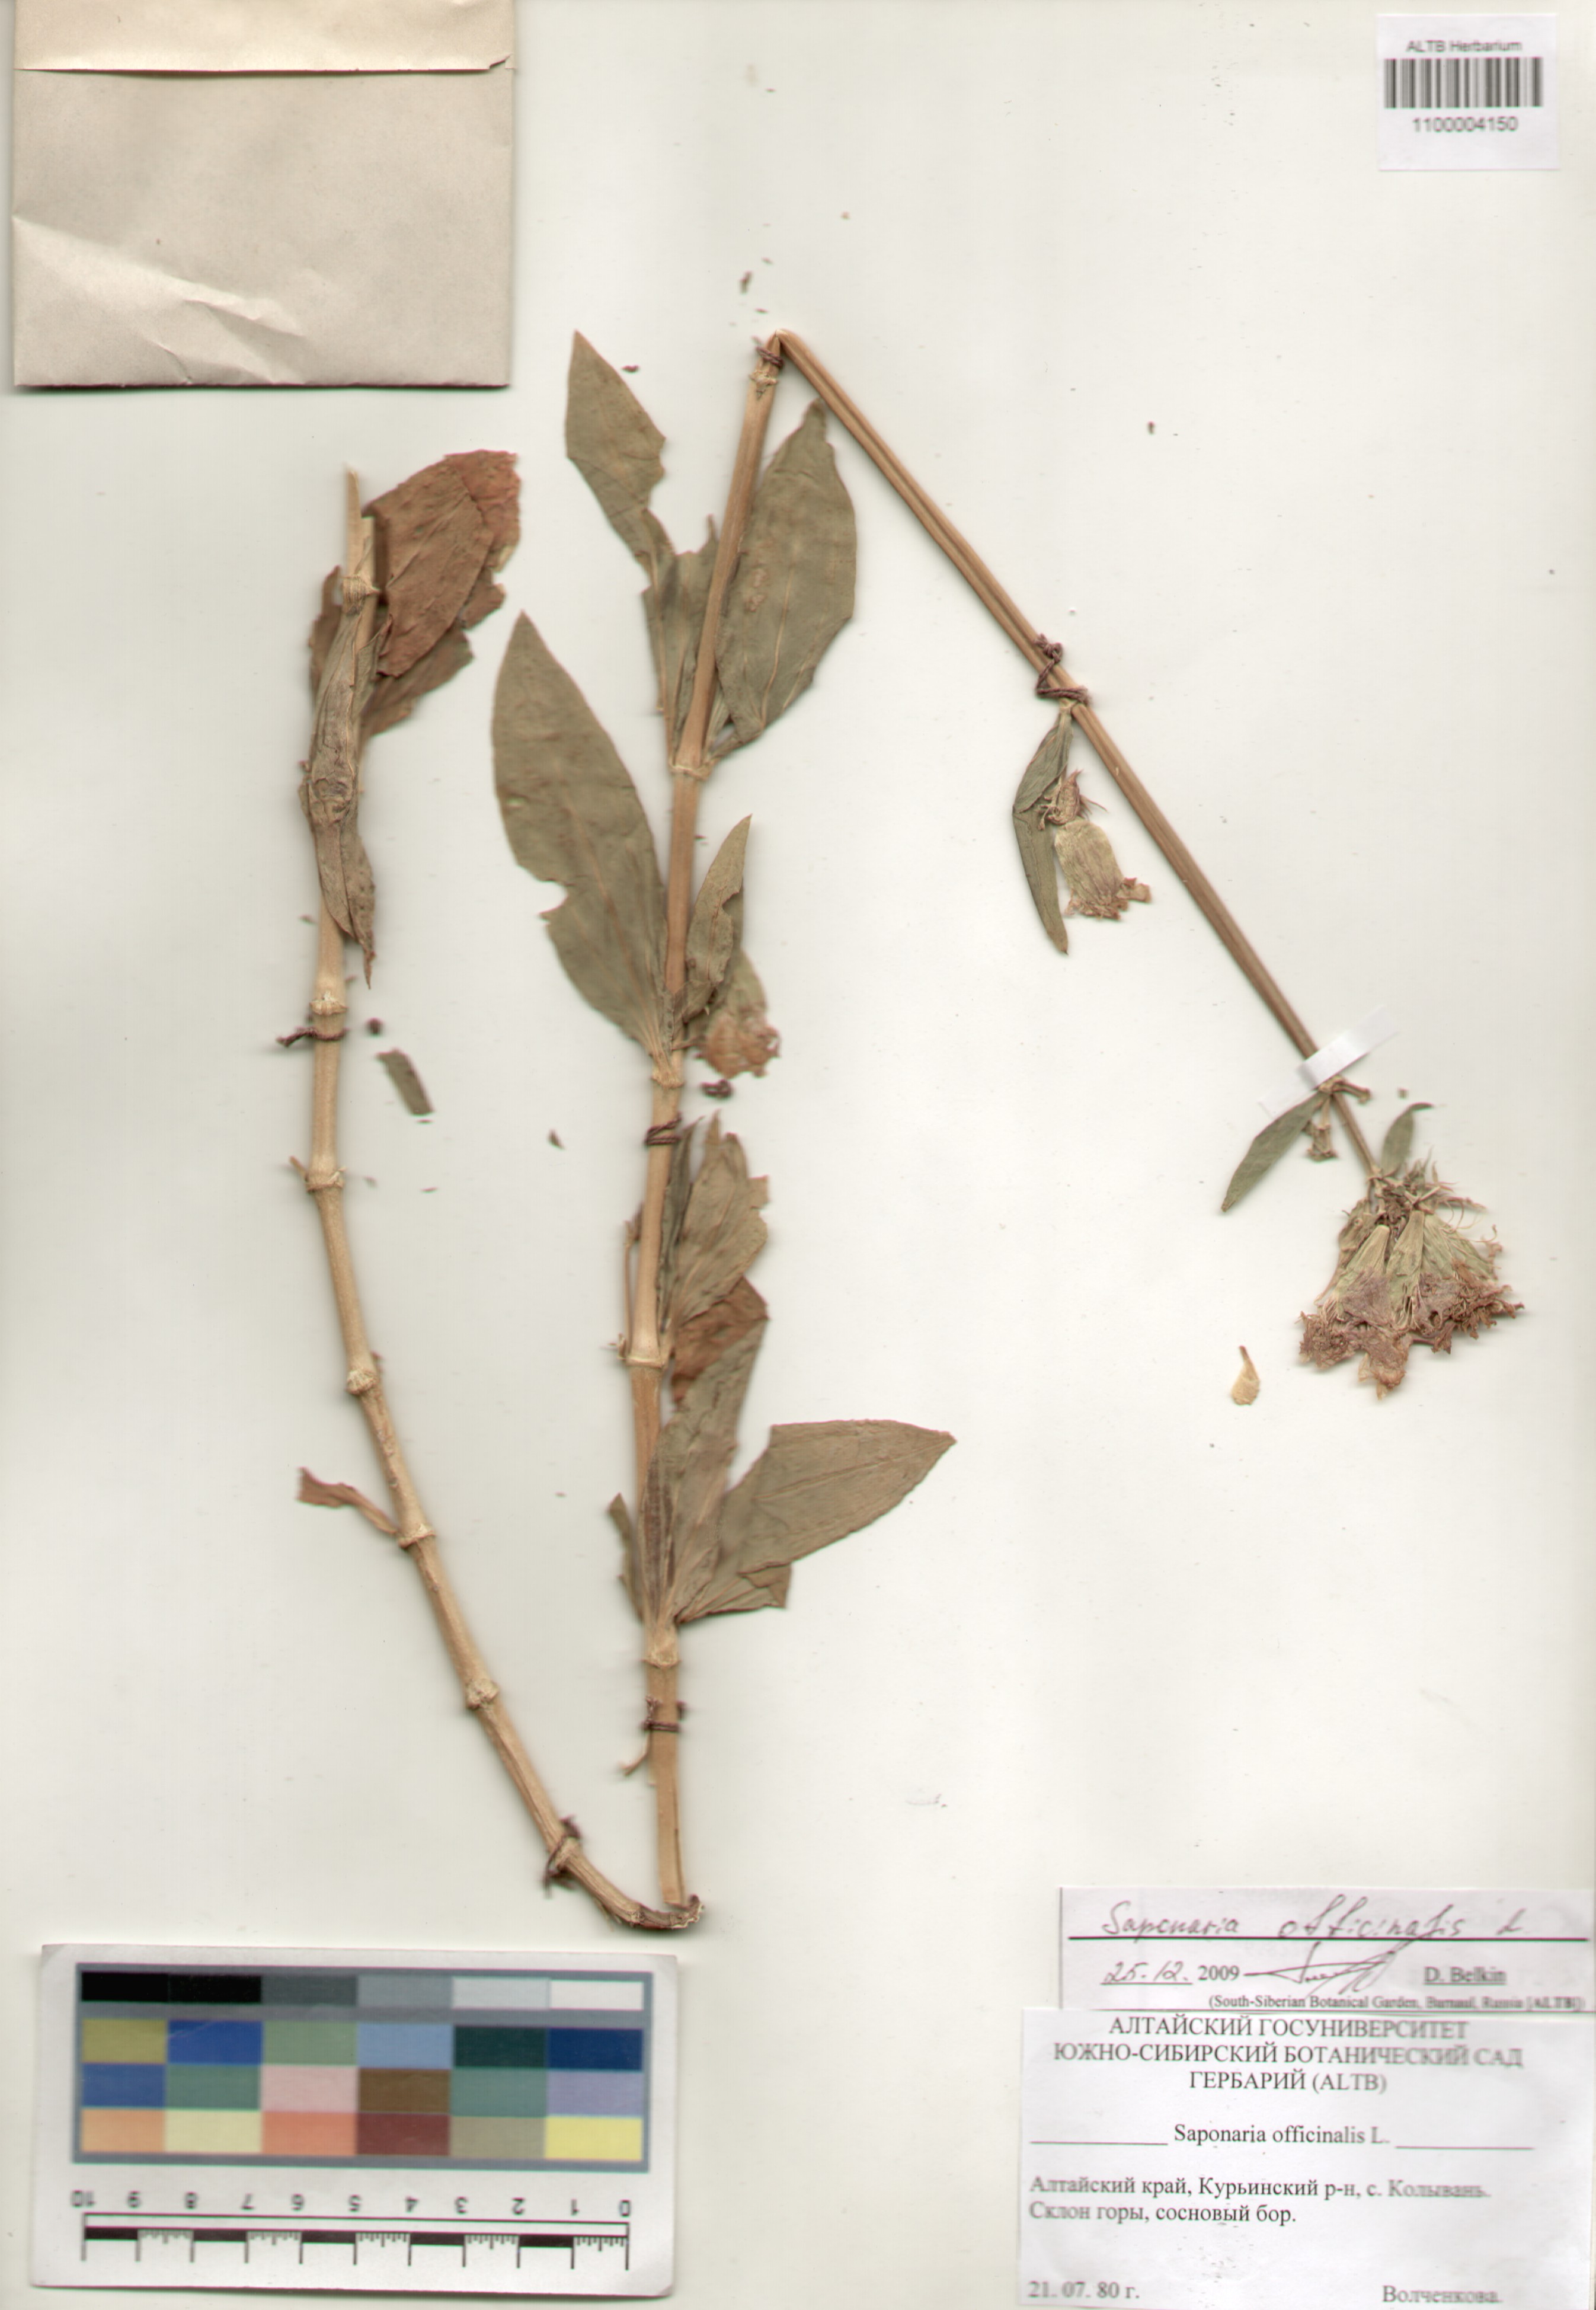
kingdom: Plantae
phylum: Tracheophyta
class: Magnoliopsida
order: Caryophyllales
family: Caryophyllaceae
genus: Saponaria
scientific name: Saponaria officinalis
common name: Soapwort
